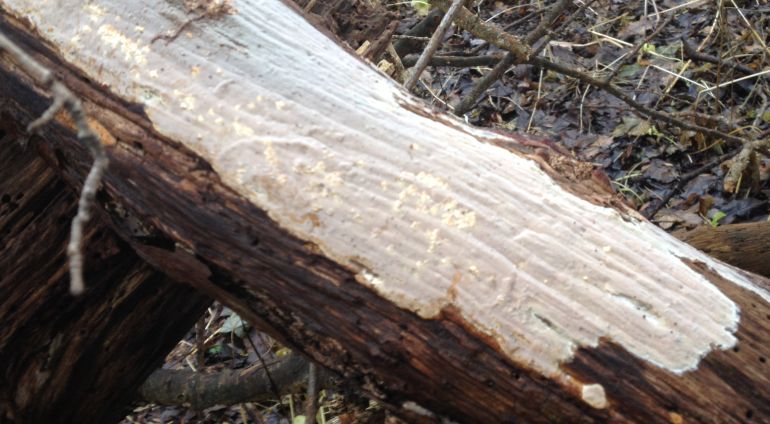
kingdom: Fungi
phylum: Basidiomycota
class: Agaricomycetes
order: Russulales
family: Peniophoraceae
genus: Scytinostroma
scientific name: Scytinostroma hemidichophyticum
